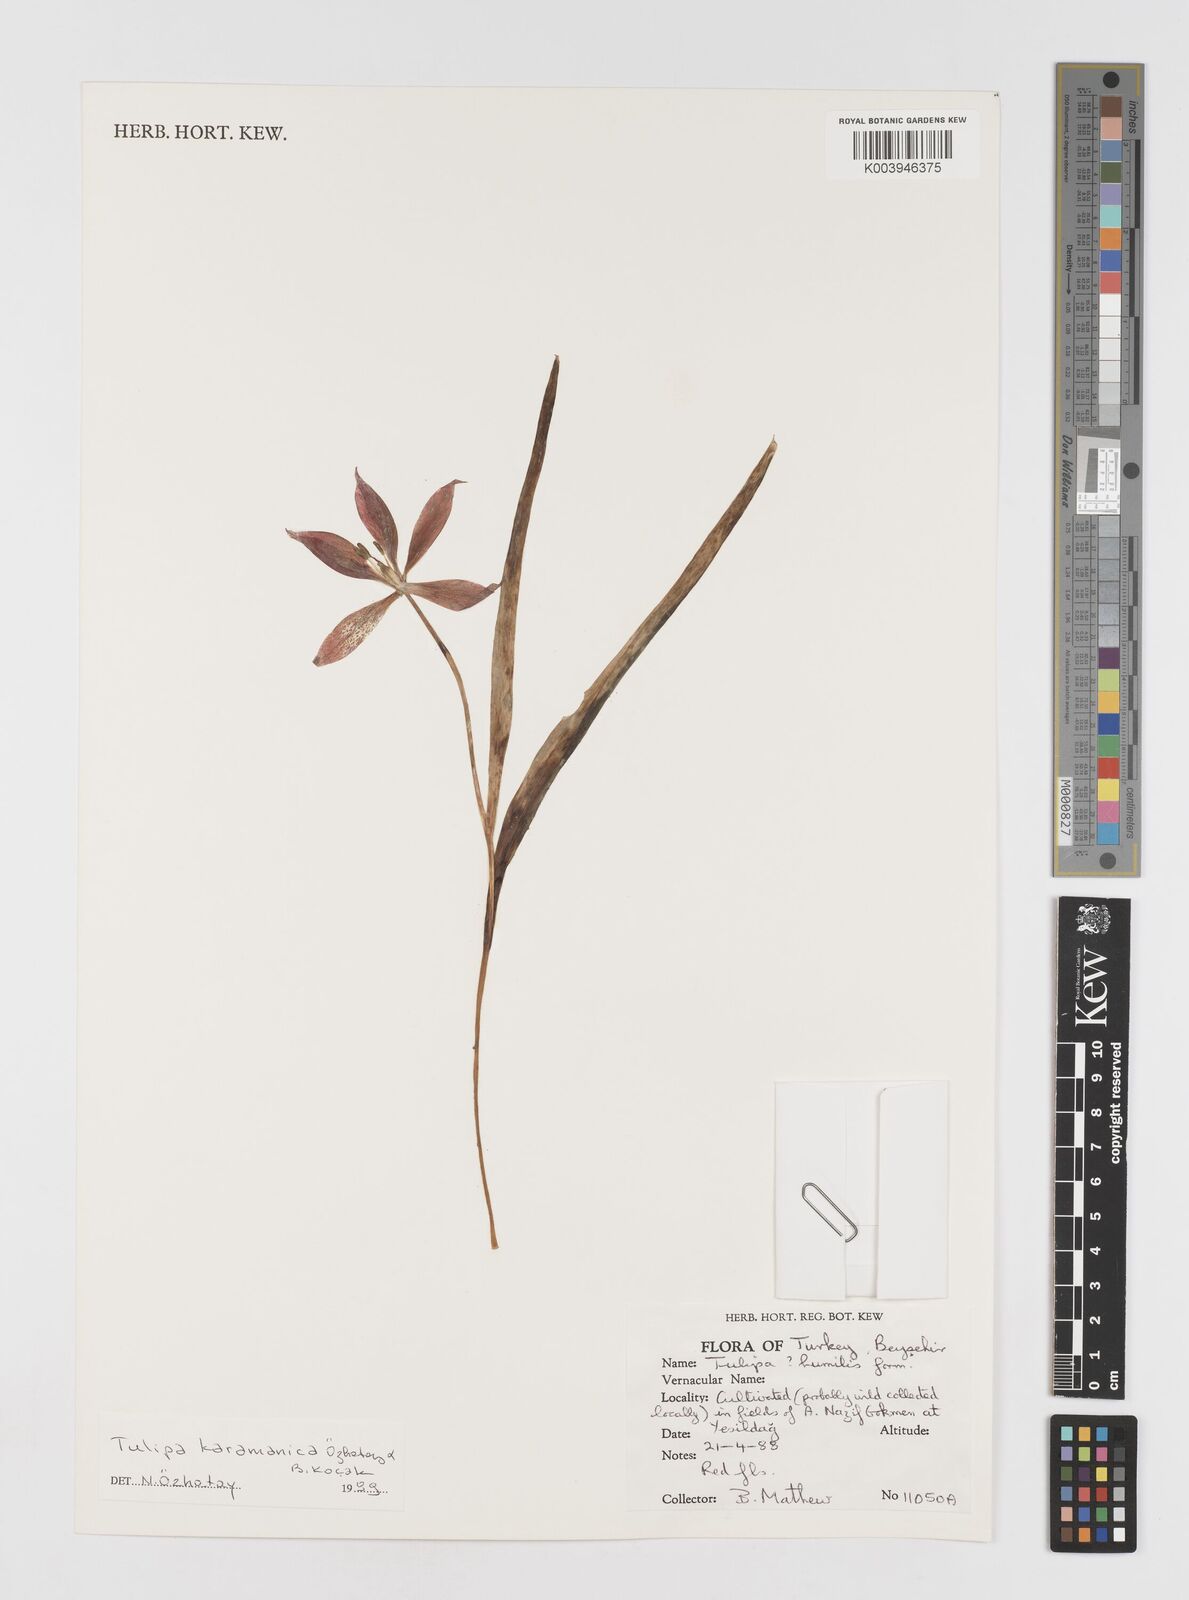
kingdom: Plantae
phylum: Tracheophyta
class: Liliopsida
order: Liliales
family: Liliaceae
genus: Tulipa
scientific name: Tulipa cinnabarina
